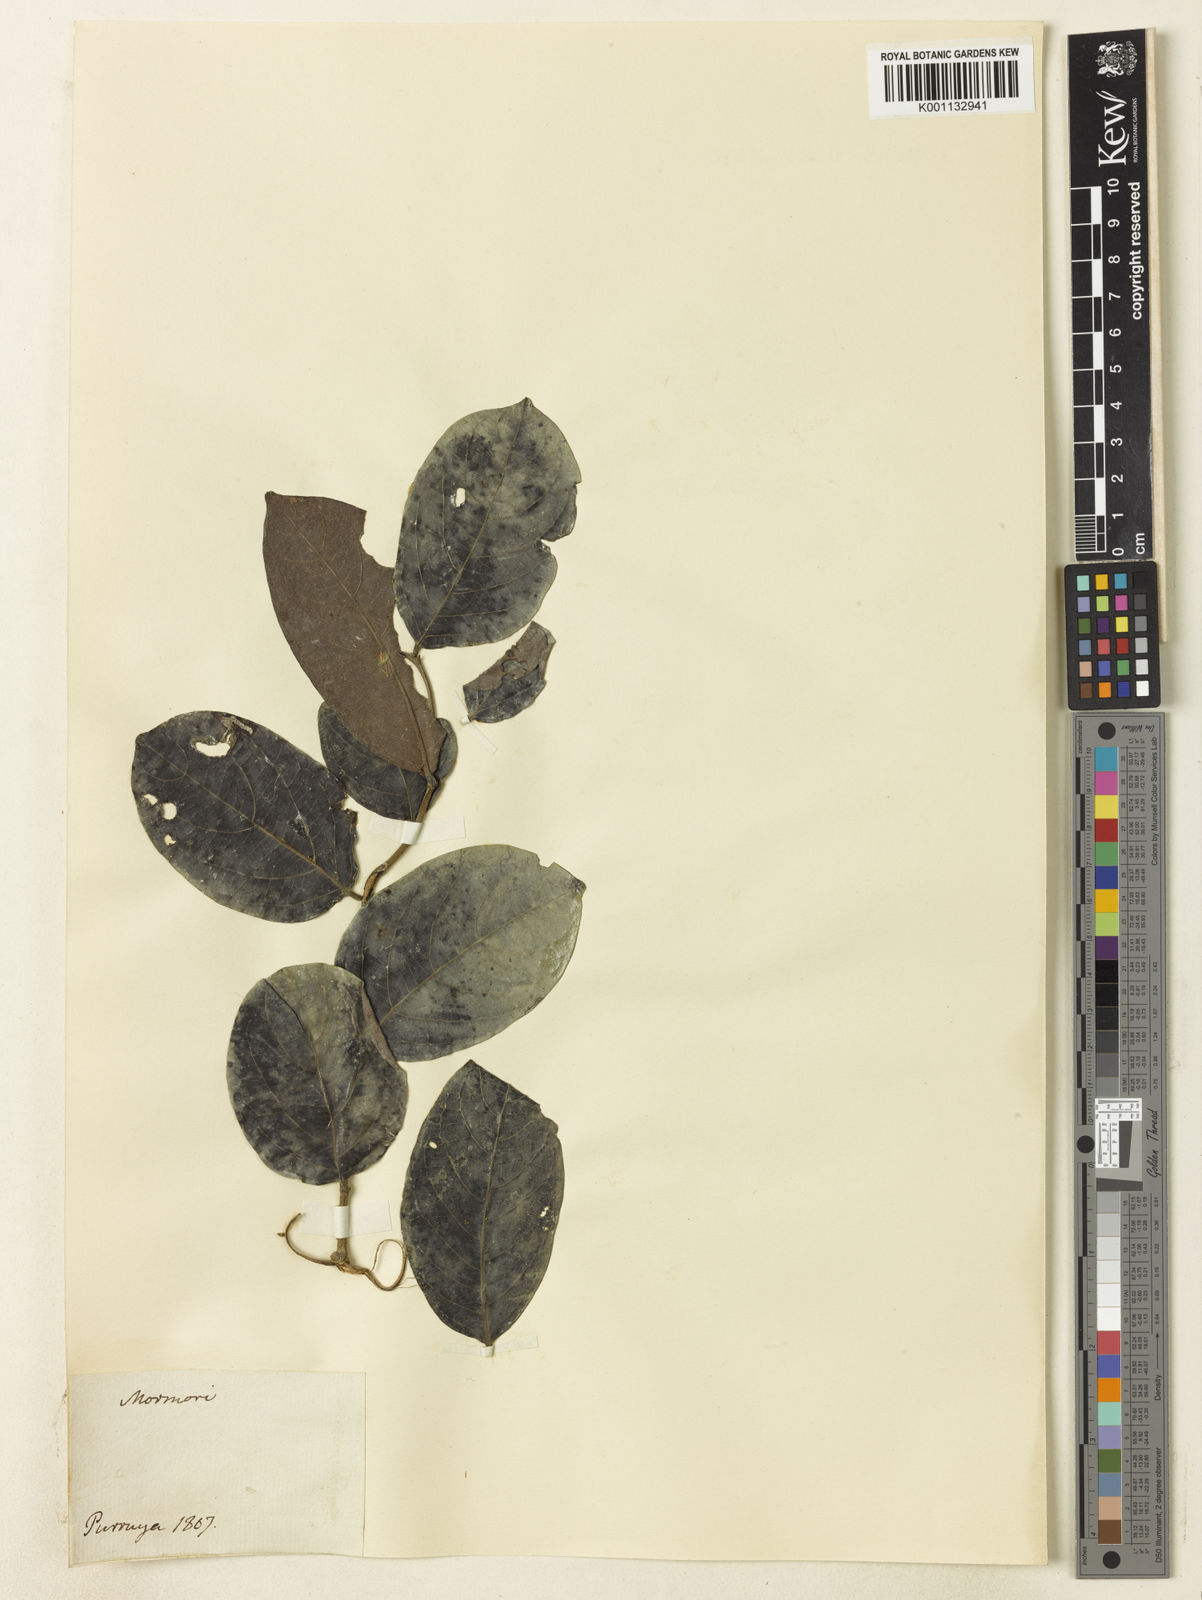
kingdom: Plantae
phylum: Tracheophyta
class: Magnoliopsida
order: Malpighiales
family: Phyllanthaceae
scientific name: Phyllanthaceae
